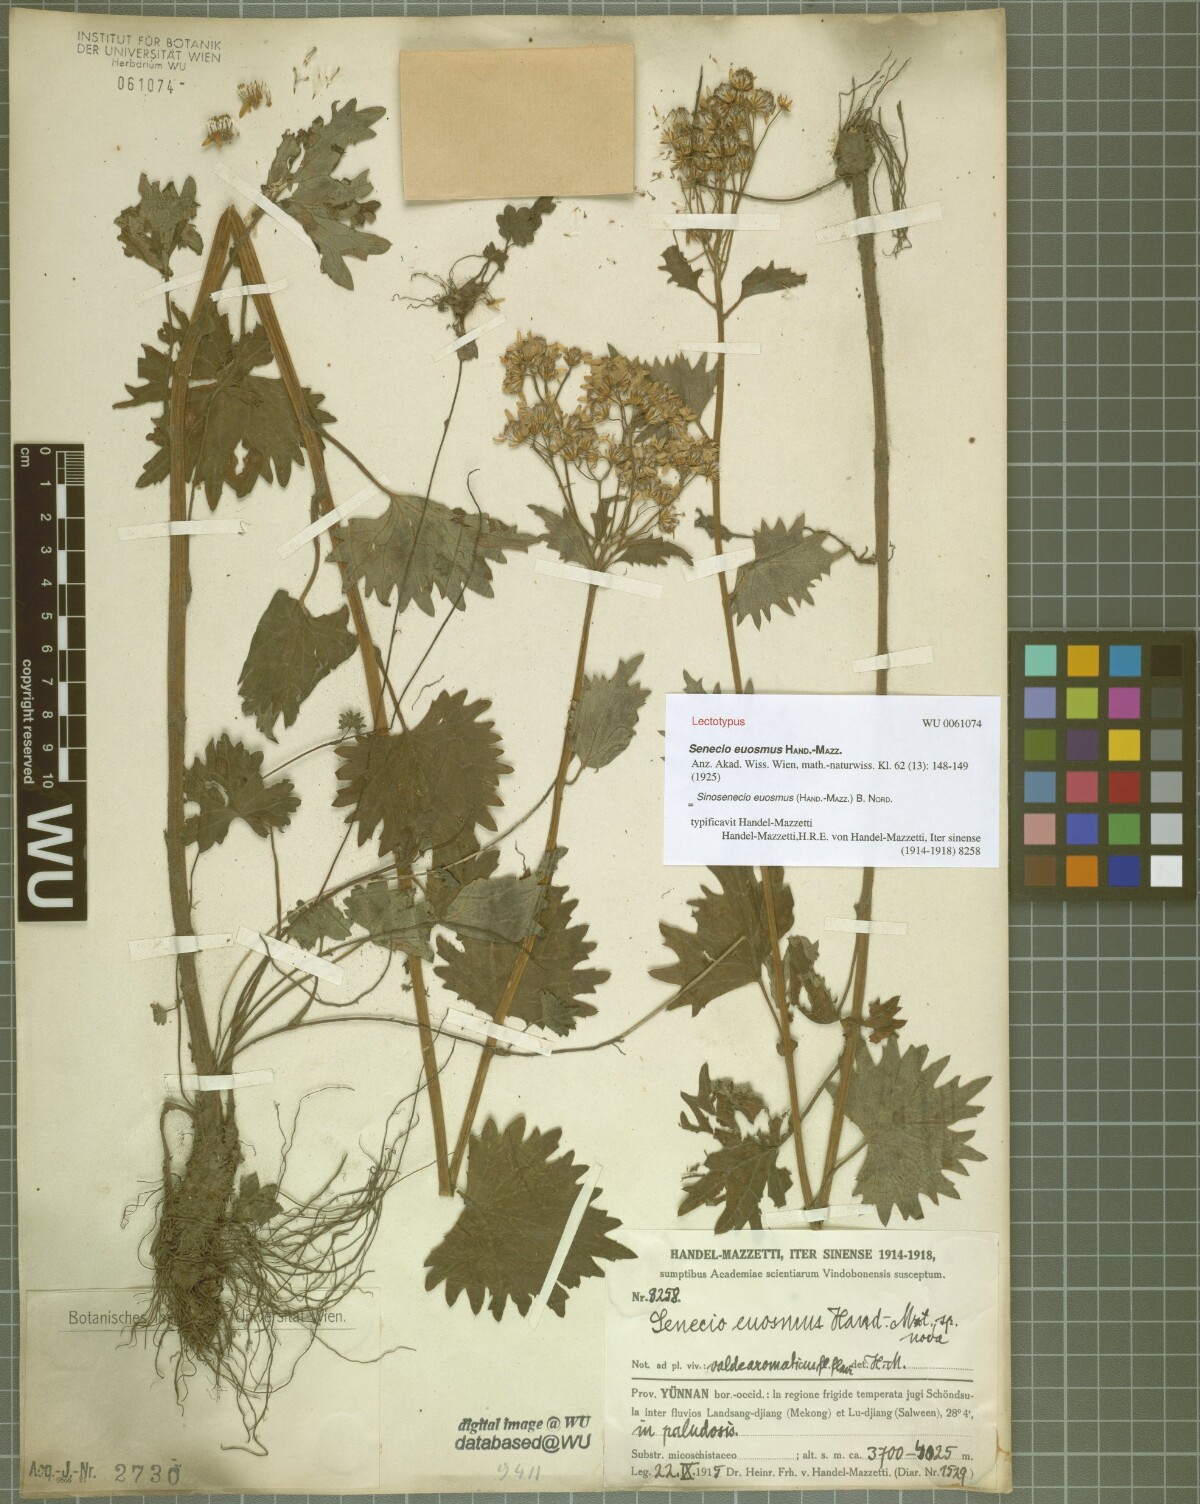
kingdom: Plantae
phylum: Tracheophyta
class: Magnoliopsida
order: Asterales
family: Asteraceae
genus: Sinosenecio
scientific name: Sinosenecio euosmus
